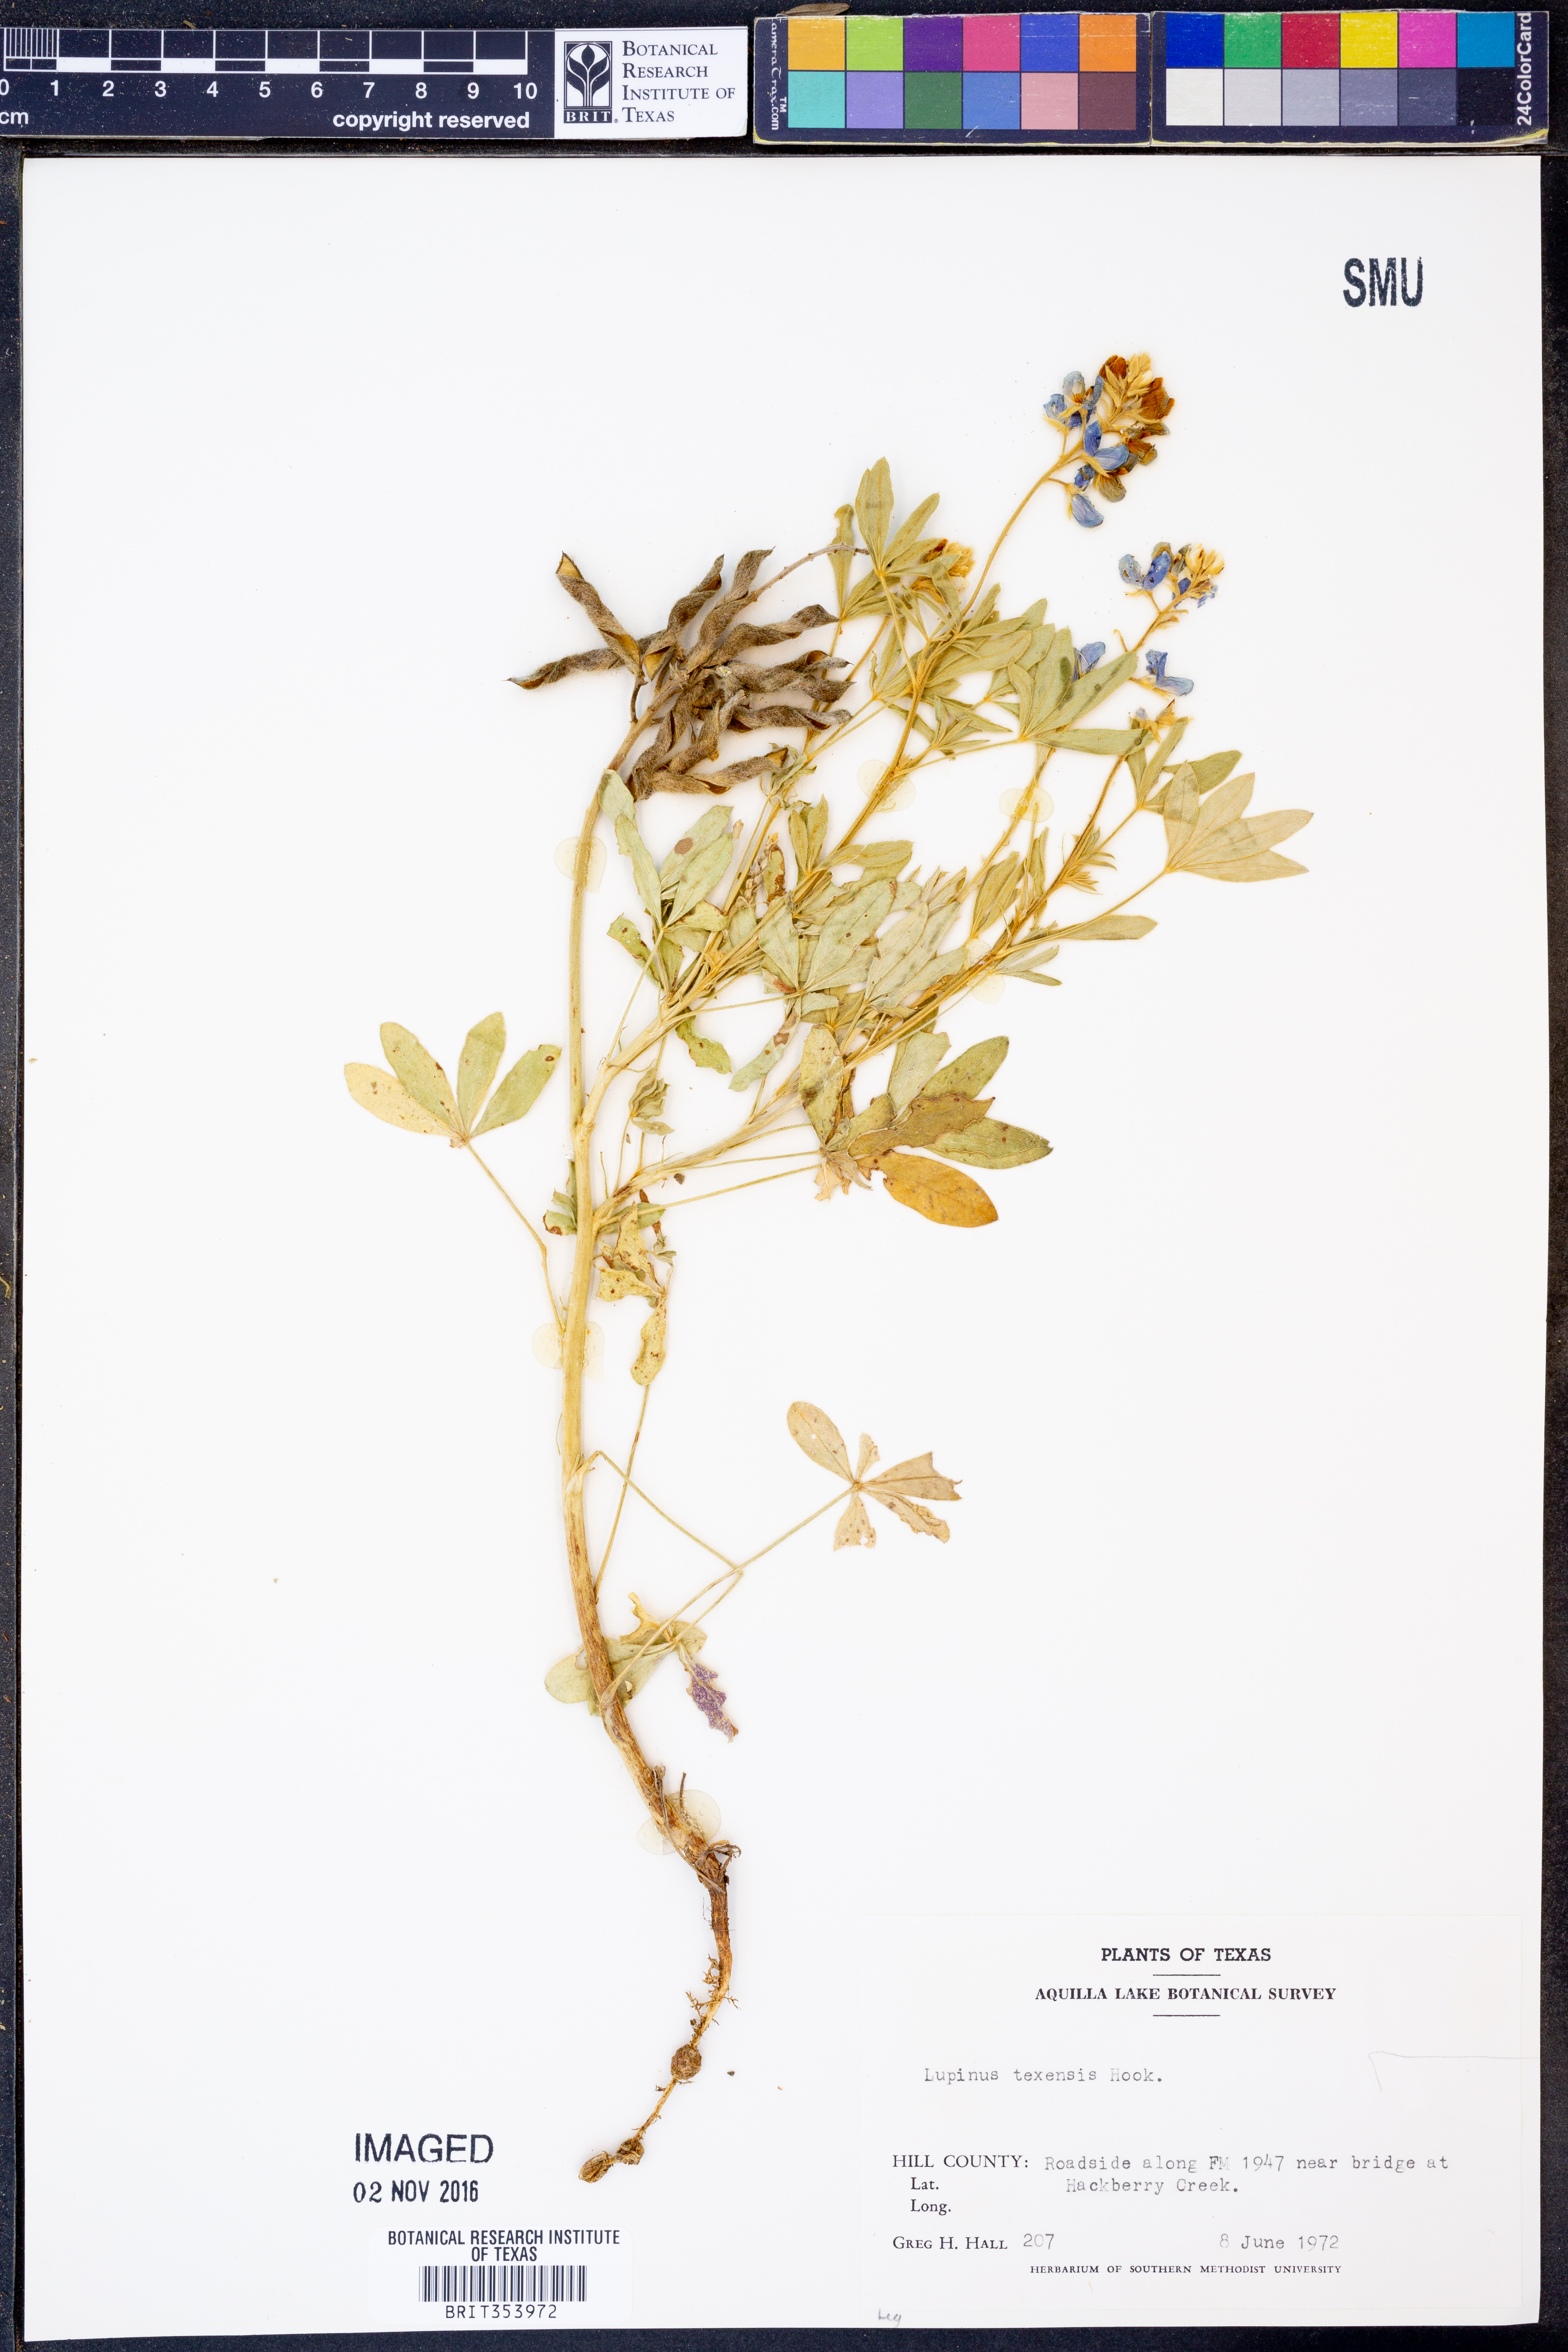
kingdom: Plantae
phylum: Tracheophyta
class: Magnoliopsida
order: Fabales
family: Fabaceae
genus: Lupinus
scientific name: Lupinus texensis
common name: Texas bluebonnet
